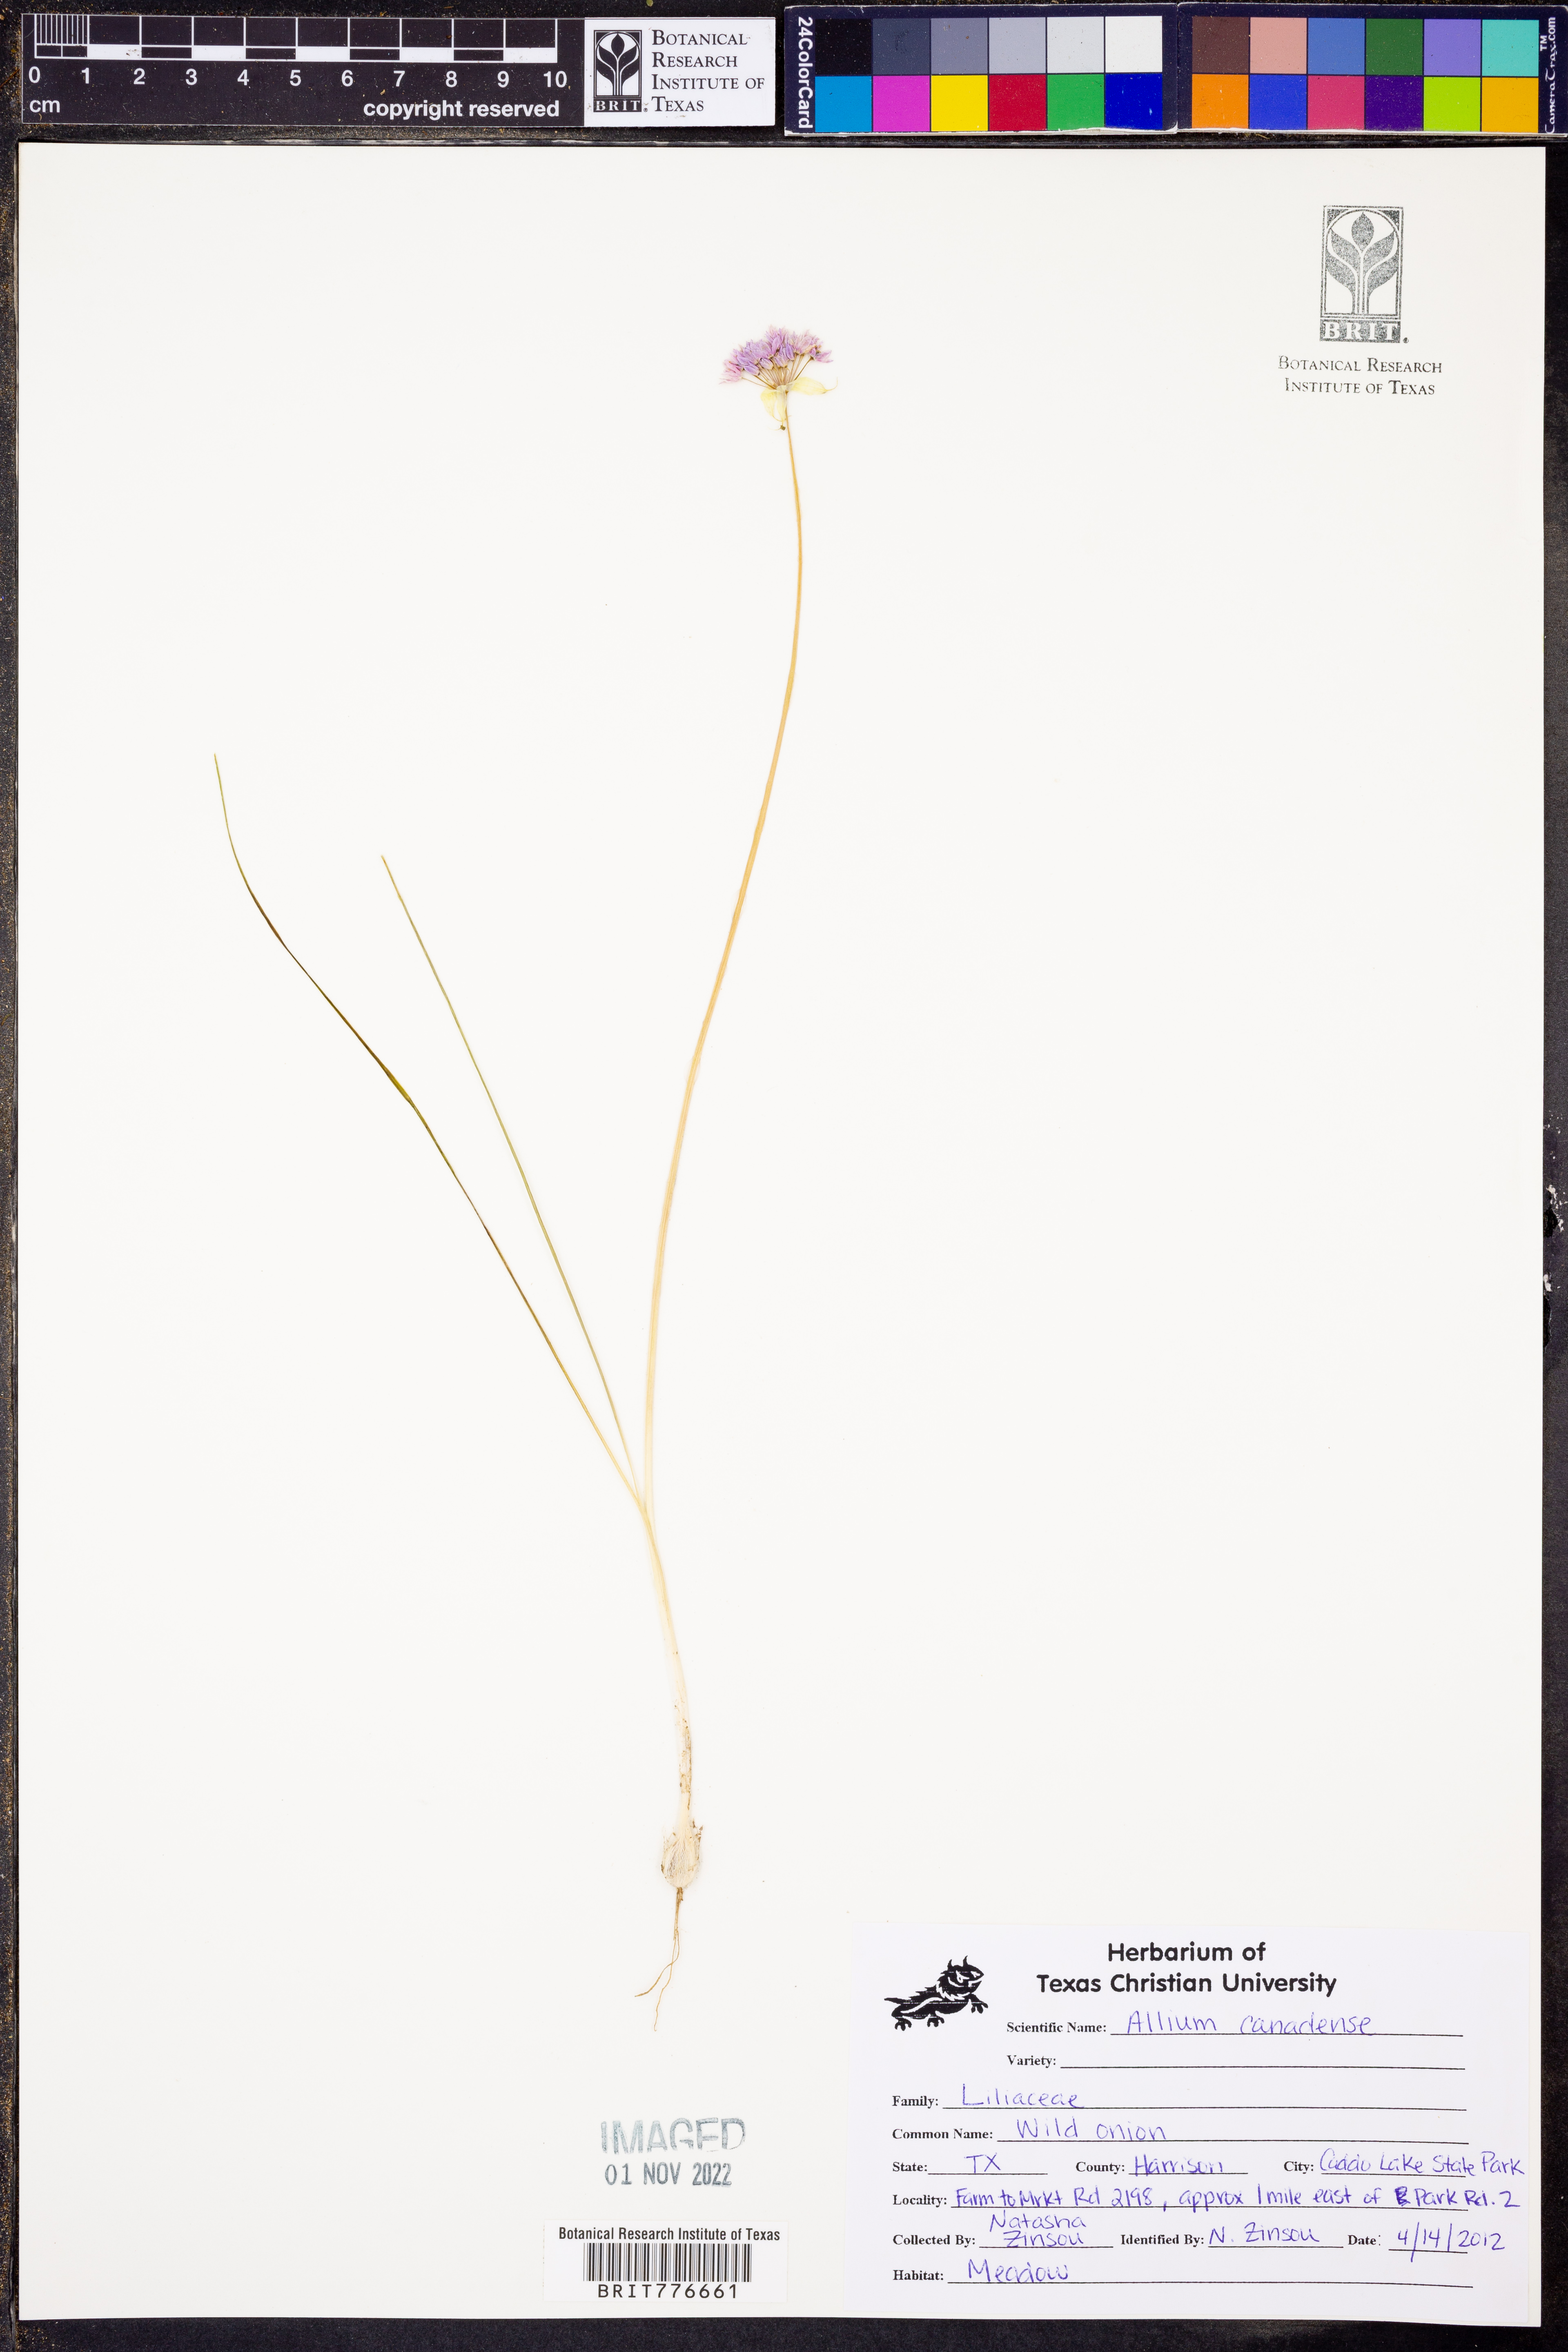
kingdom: Plantae
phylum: Tracheophyta
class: Liliopsida
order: Asparagales
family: Amaryllidaceae
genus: Allium
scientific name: Allium canadense
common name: Meadow garlic
